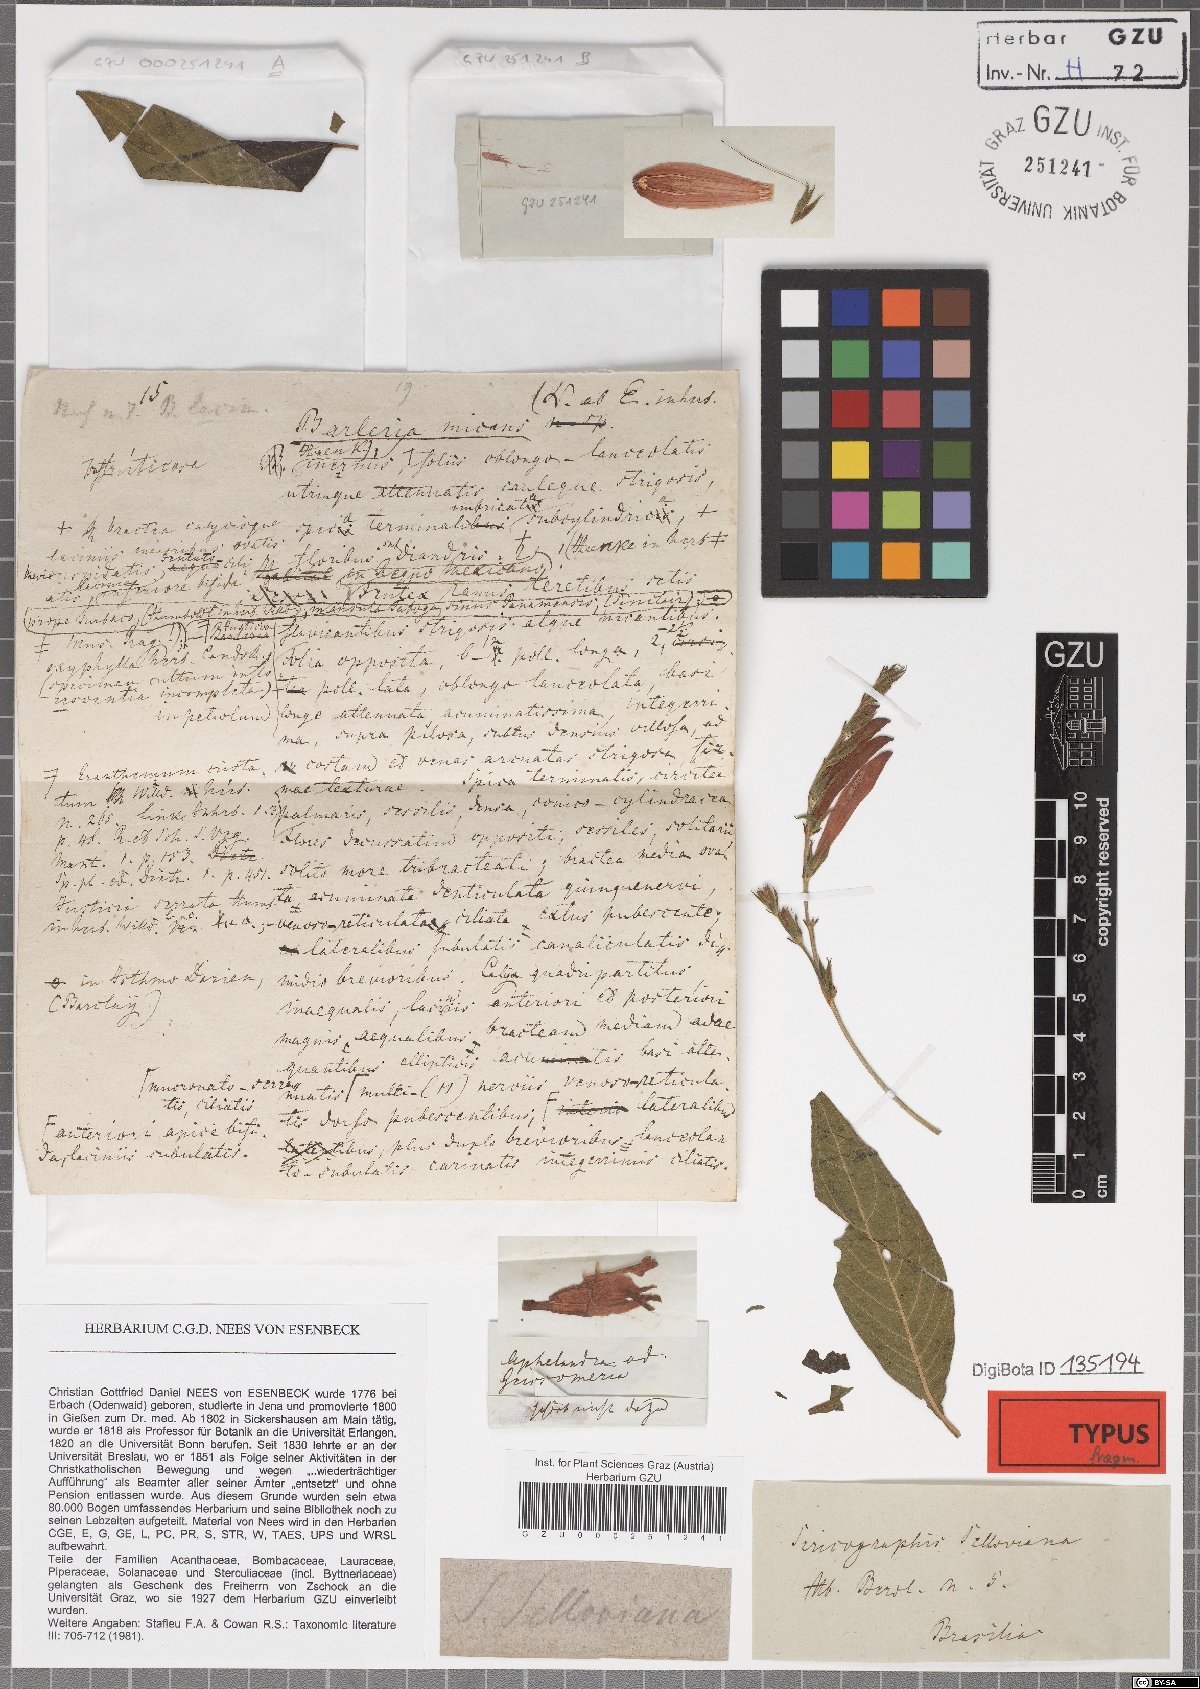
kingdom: Plantae
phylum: Tracheophyta
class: Magnoliopsida
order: Lamiales
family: Acanthaceae
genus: Justicia
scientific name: Justicia Sericographis selloviana
